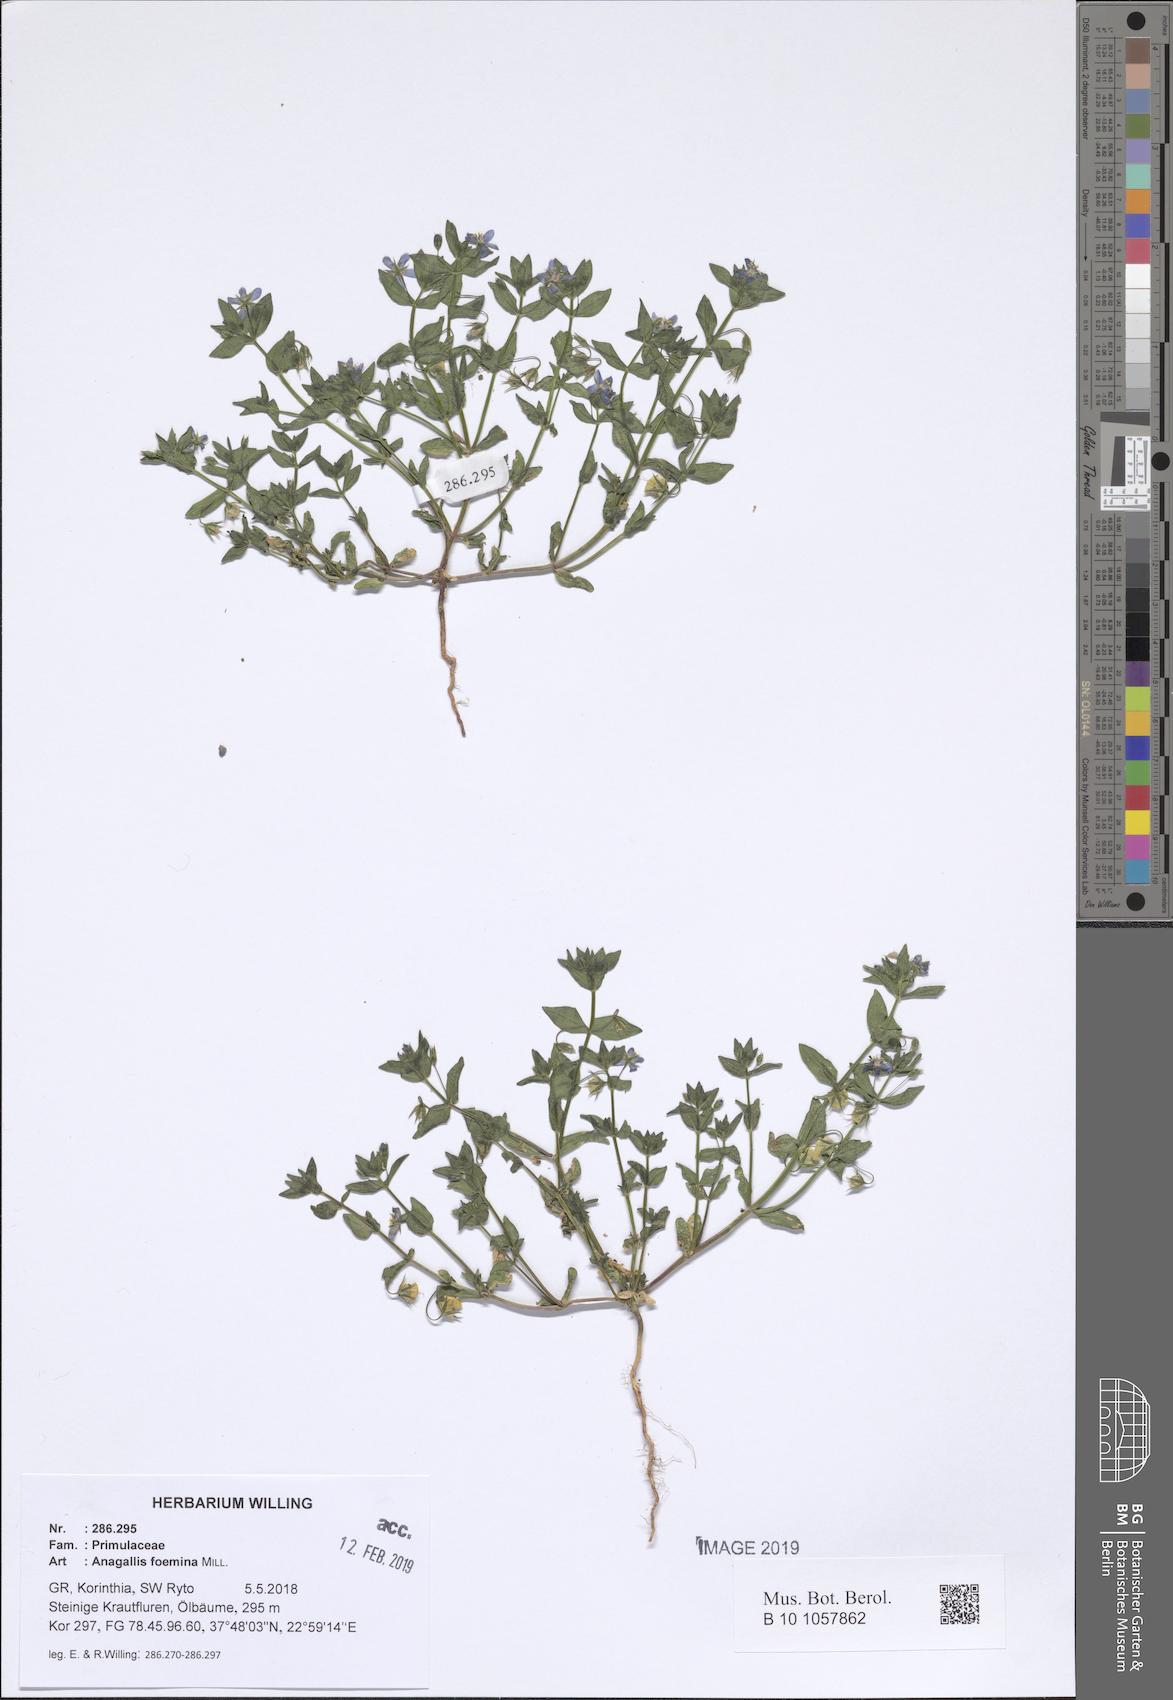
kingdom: Plantae
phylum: Tracheophyta
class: Magnoliopsida
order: Ericales
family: Primulaceae
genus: Lysimachia
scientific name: Lysimachia foemina
